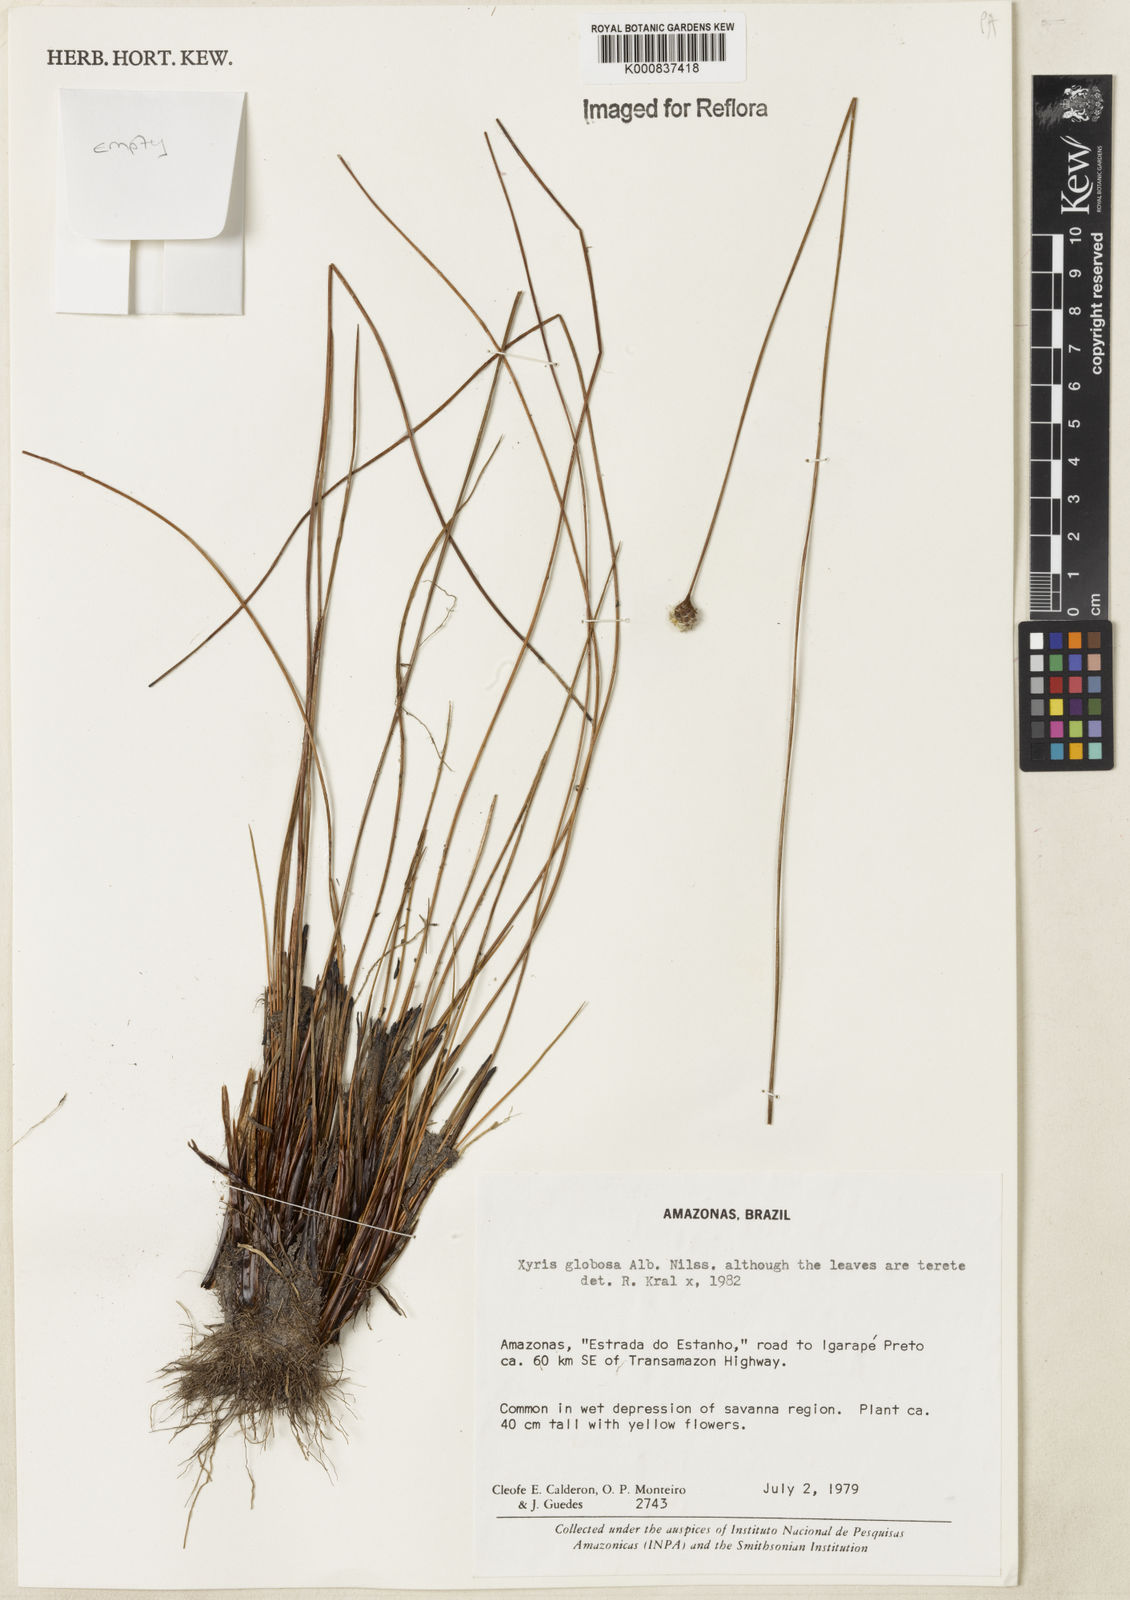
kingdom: Plantae
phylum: Tracheophyta
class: Liliopsida
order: Poales
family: Xyridaceae
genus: Xyris
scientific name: Xyris globosa
